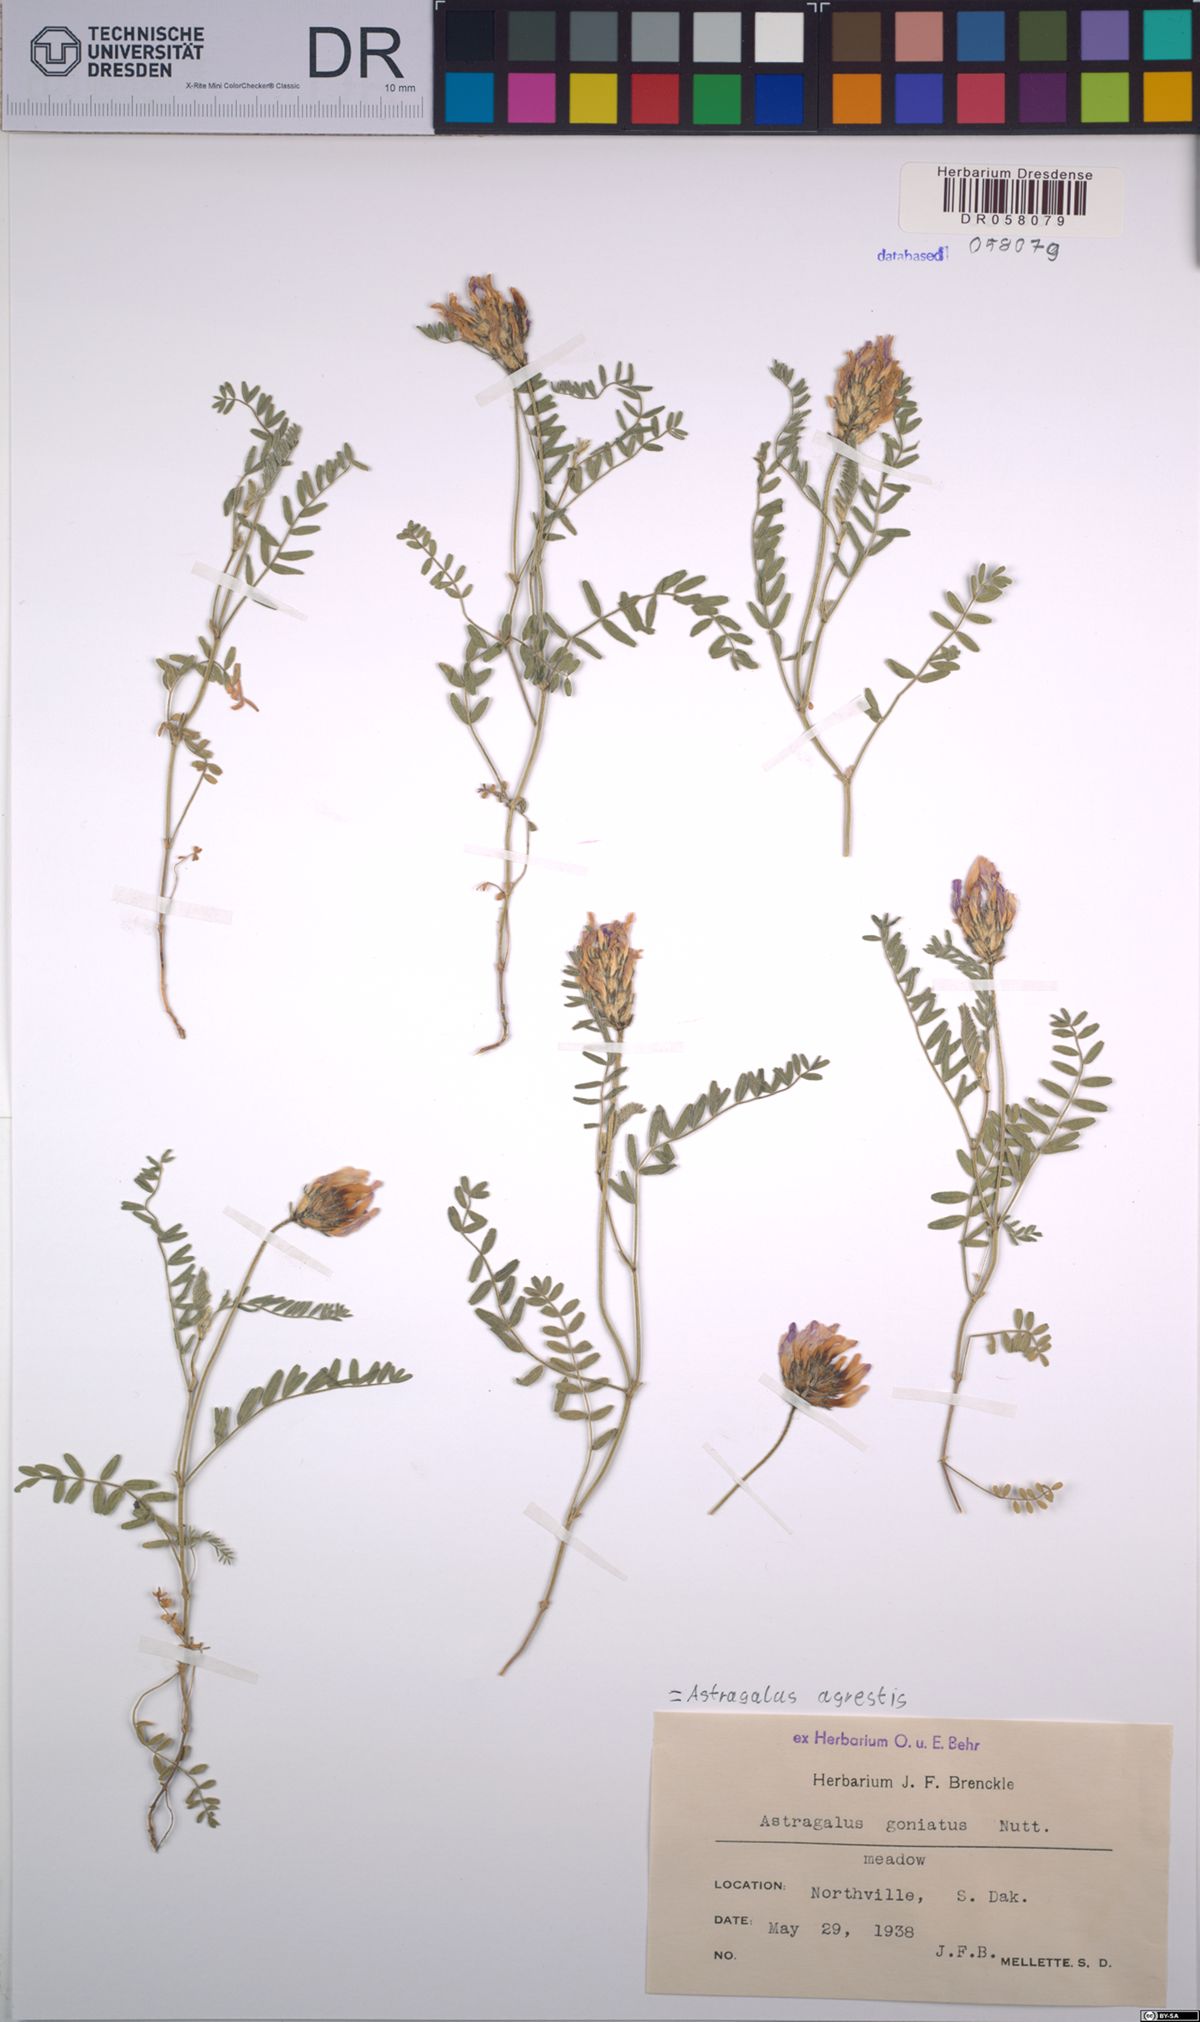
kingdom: Plantae
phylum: Tracheophyta
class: Magnoliopsida
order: Fabales
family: Fabaceae
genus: Astragalus
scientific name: Astragalus agrestis
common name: Field milk-vetch
